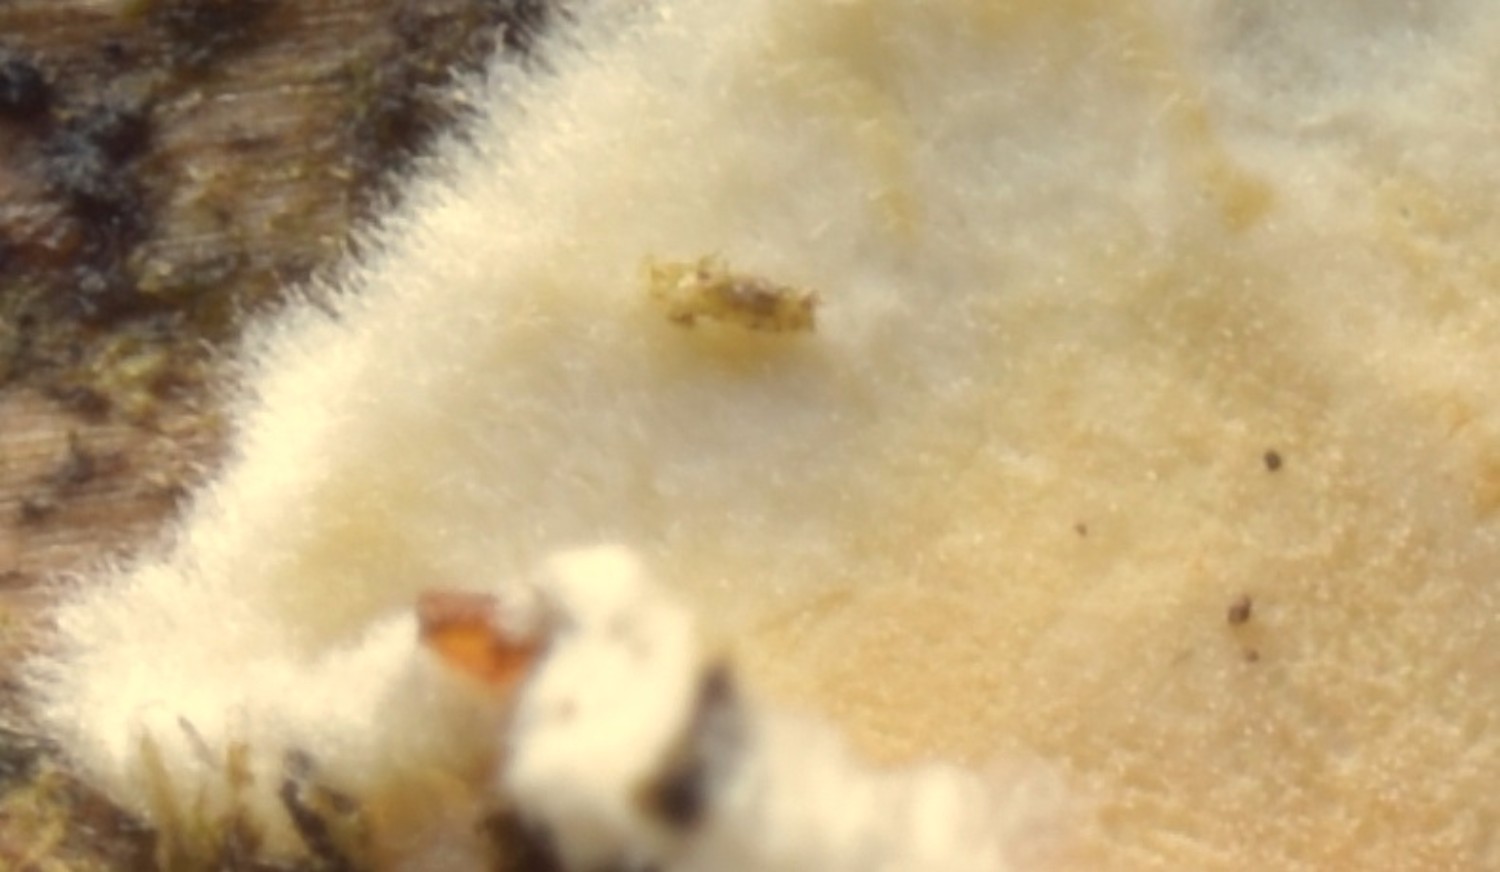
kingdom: Fungi
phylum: Basidiomycota
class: Agaricomycetes
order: Polyporales
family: Phanerochaetaceae
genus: Phanerochaete
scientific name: Phanerochaete velutina
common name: dunet randtråd
